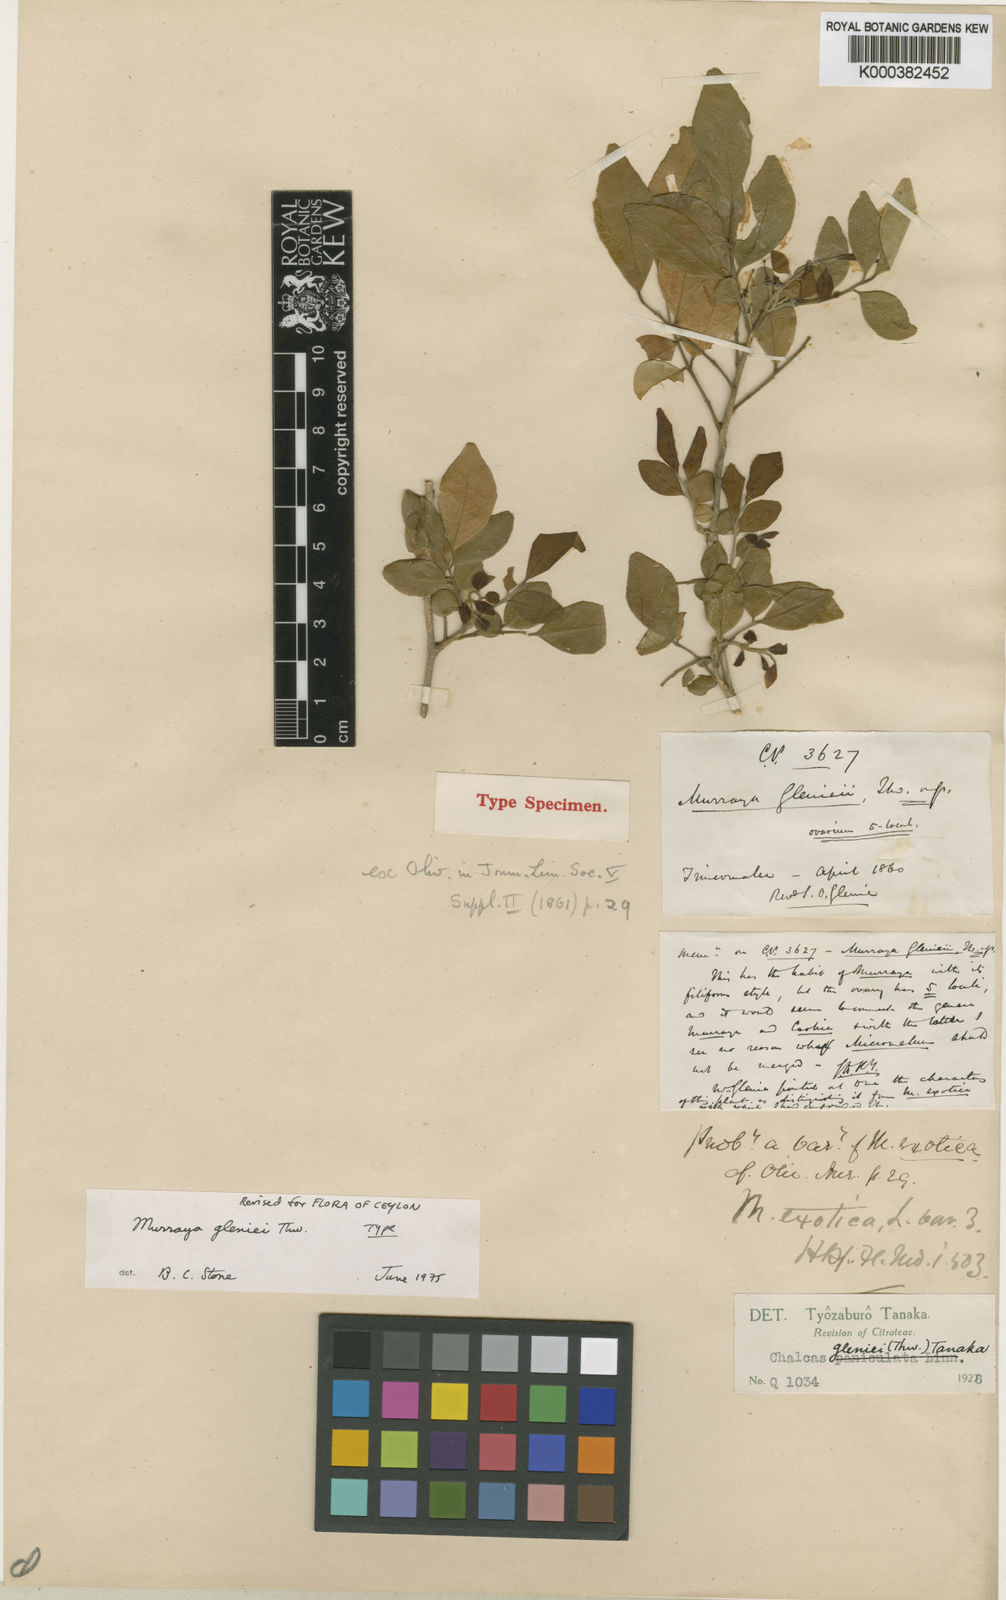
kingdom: Plantae
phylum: Tracheophyta
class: Magnoliopsida
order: Sapindales
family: Rutaceae
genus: Murraya
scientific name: Murraya glenieii
